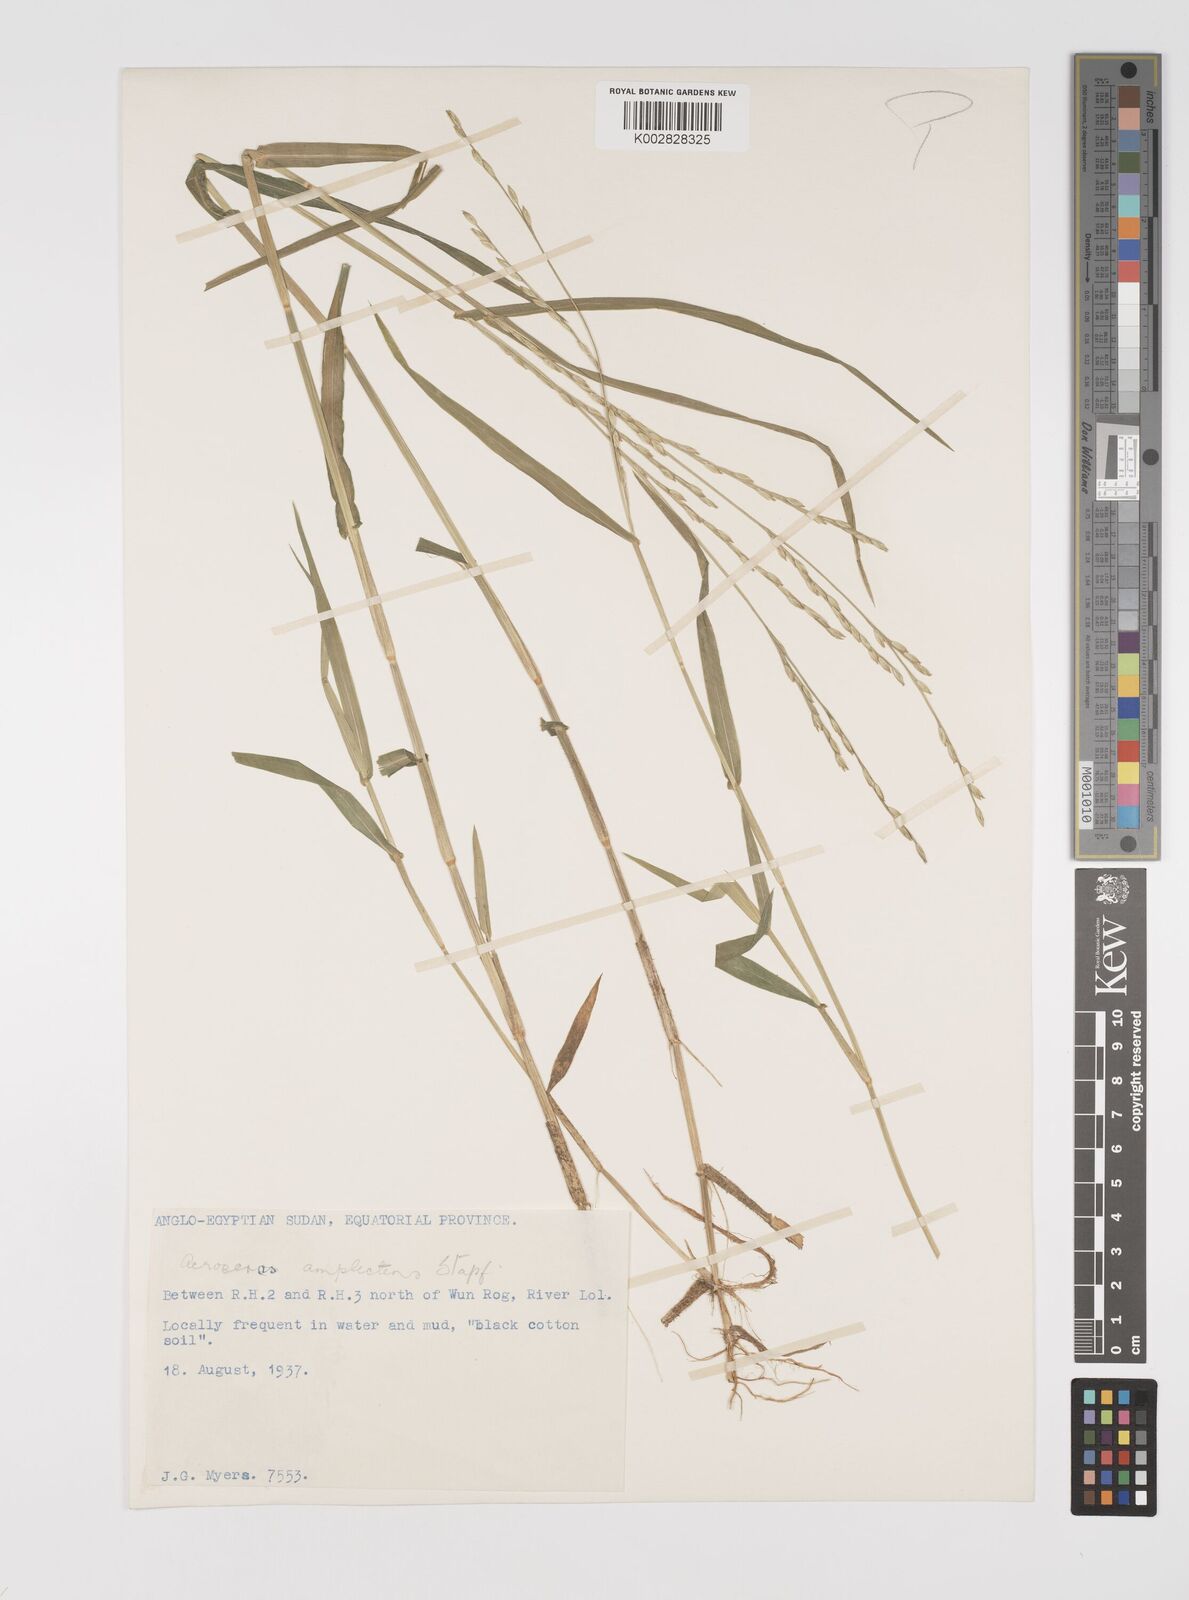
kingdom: Plantae
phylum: Tracheophyta
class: Liliopsida
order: Poales
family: Poaceae
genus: Acroceras
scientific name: Acroceras amplectens
